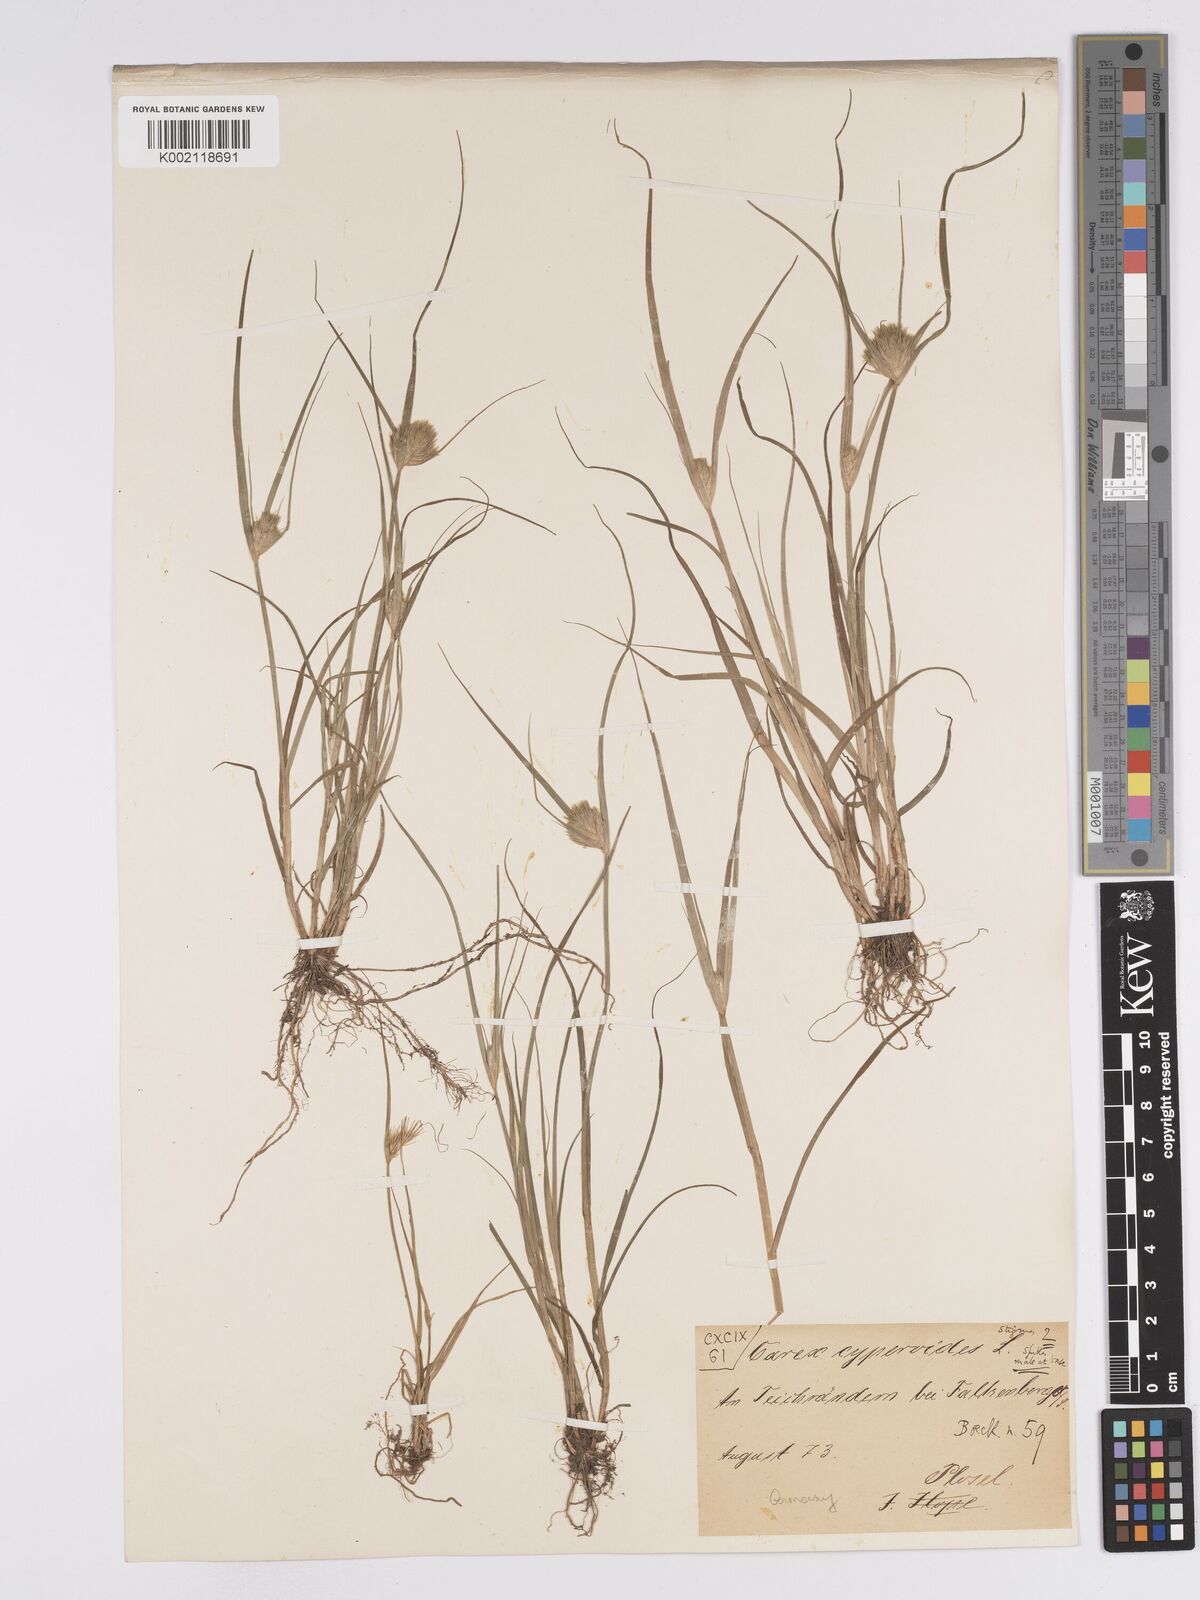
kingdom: Plantae
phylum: Tracheophyta
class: Liliopsida
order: Poales
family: Cyperaceae
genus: Carex
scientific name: Carex bohemica
